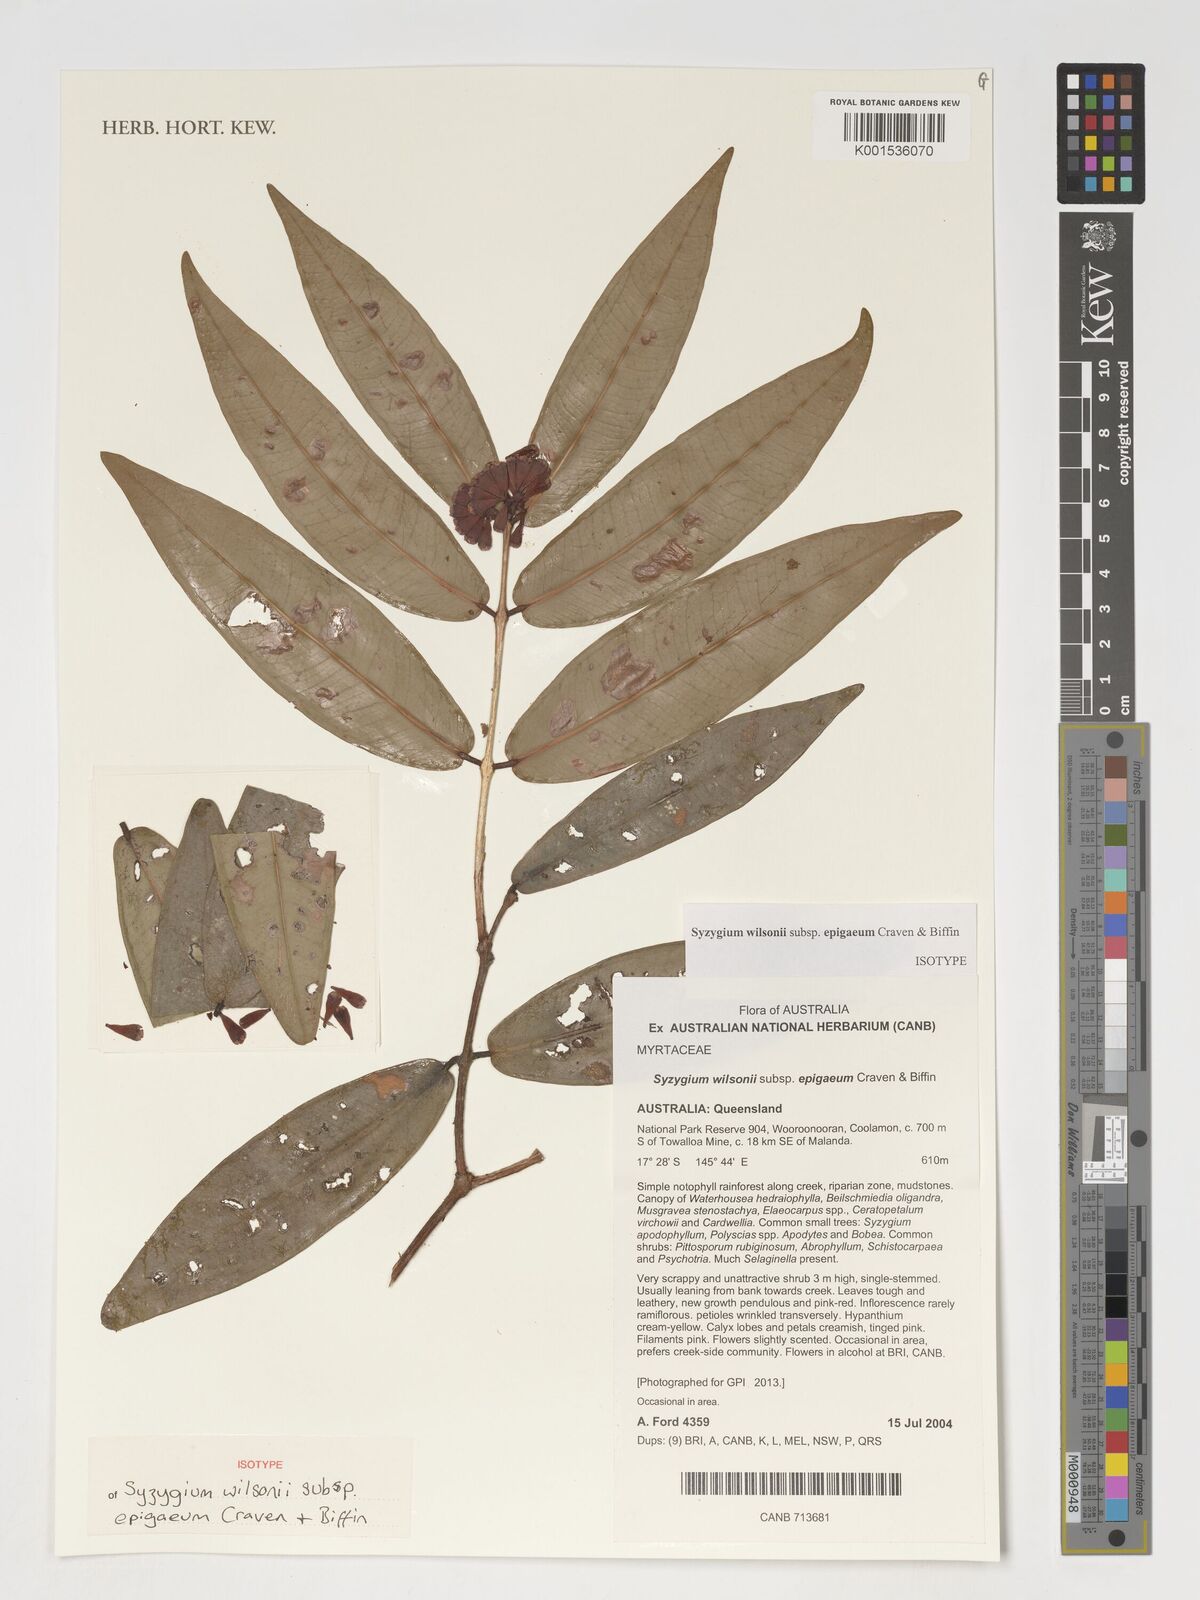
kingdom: Plantae
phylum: Tracheophyta
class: Magnoliopsida
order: Myrtales
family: Myrtaceae
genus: Syzygium
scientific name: Syzygium wilsonii
